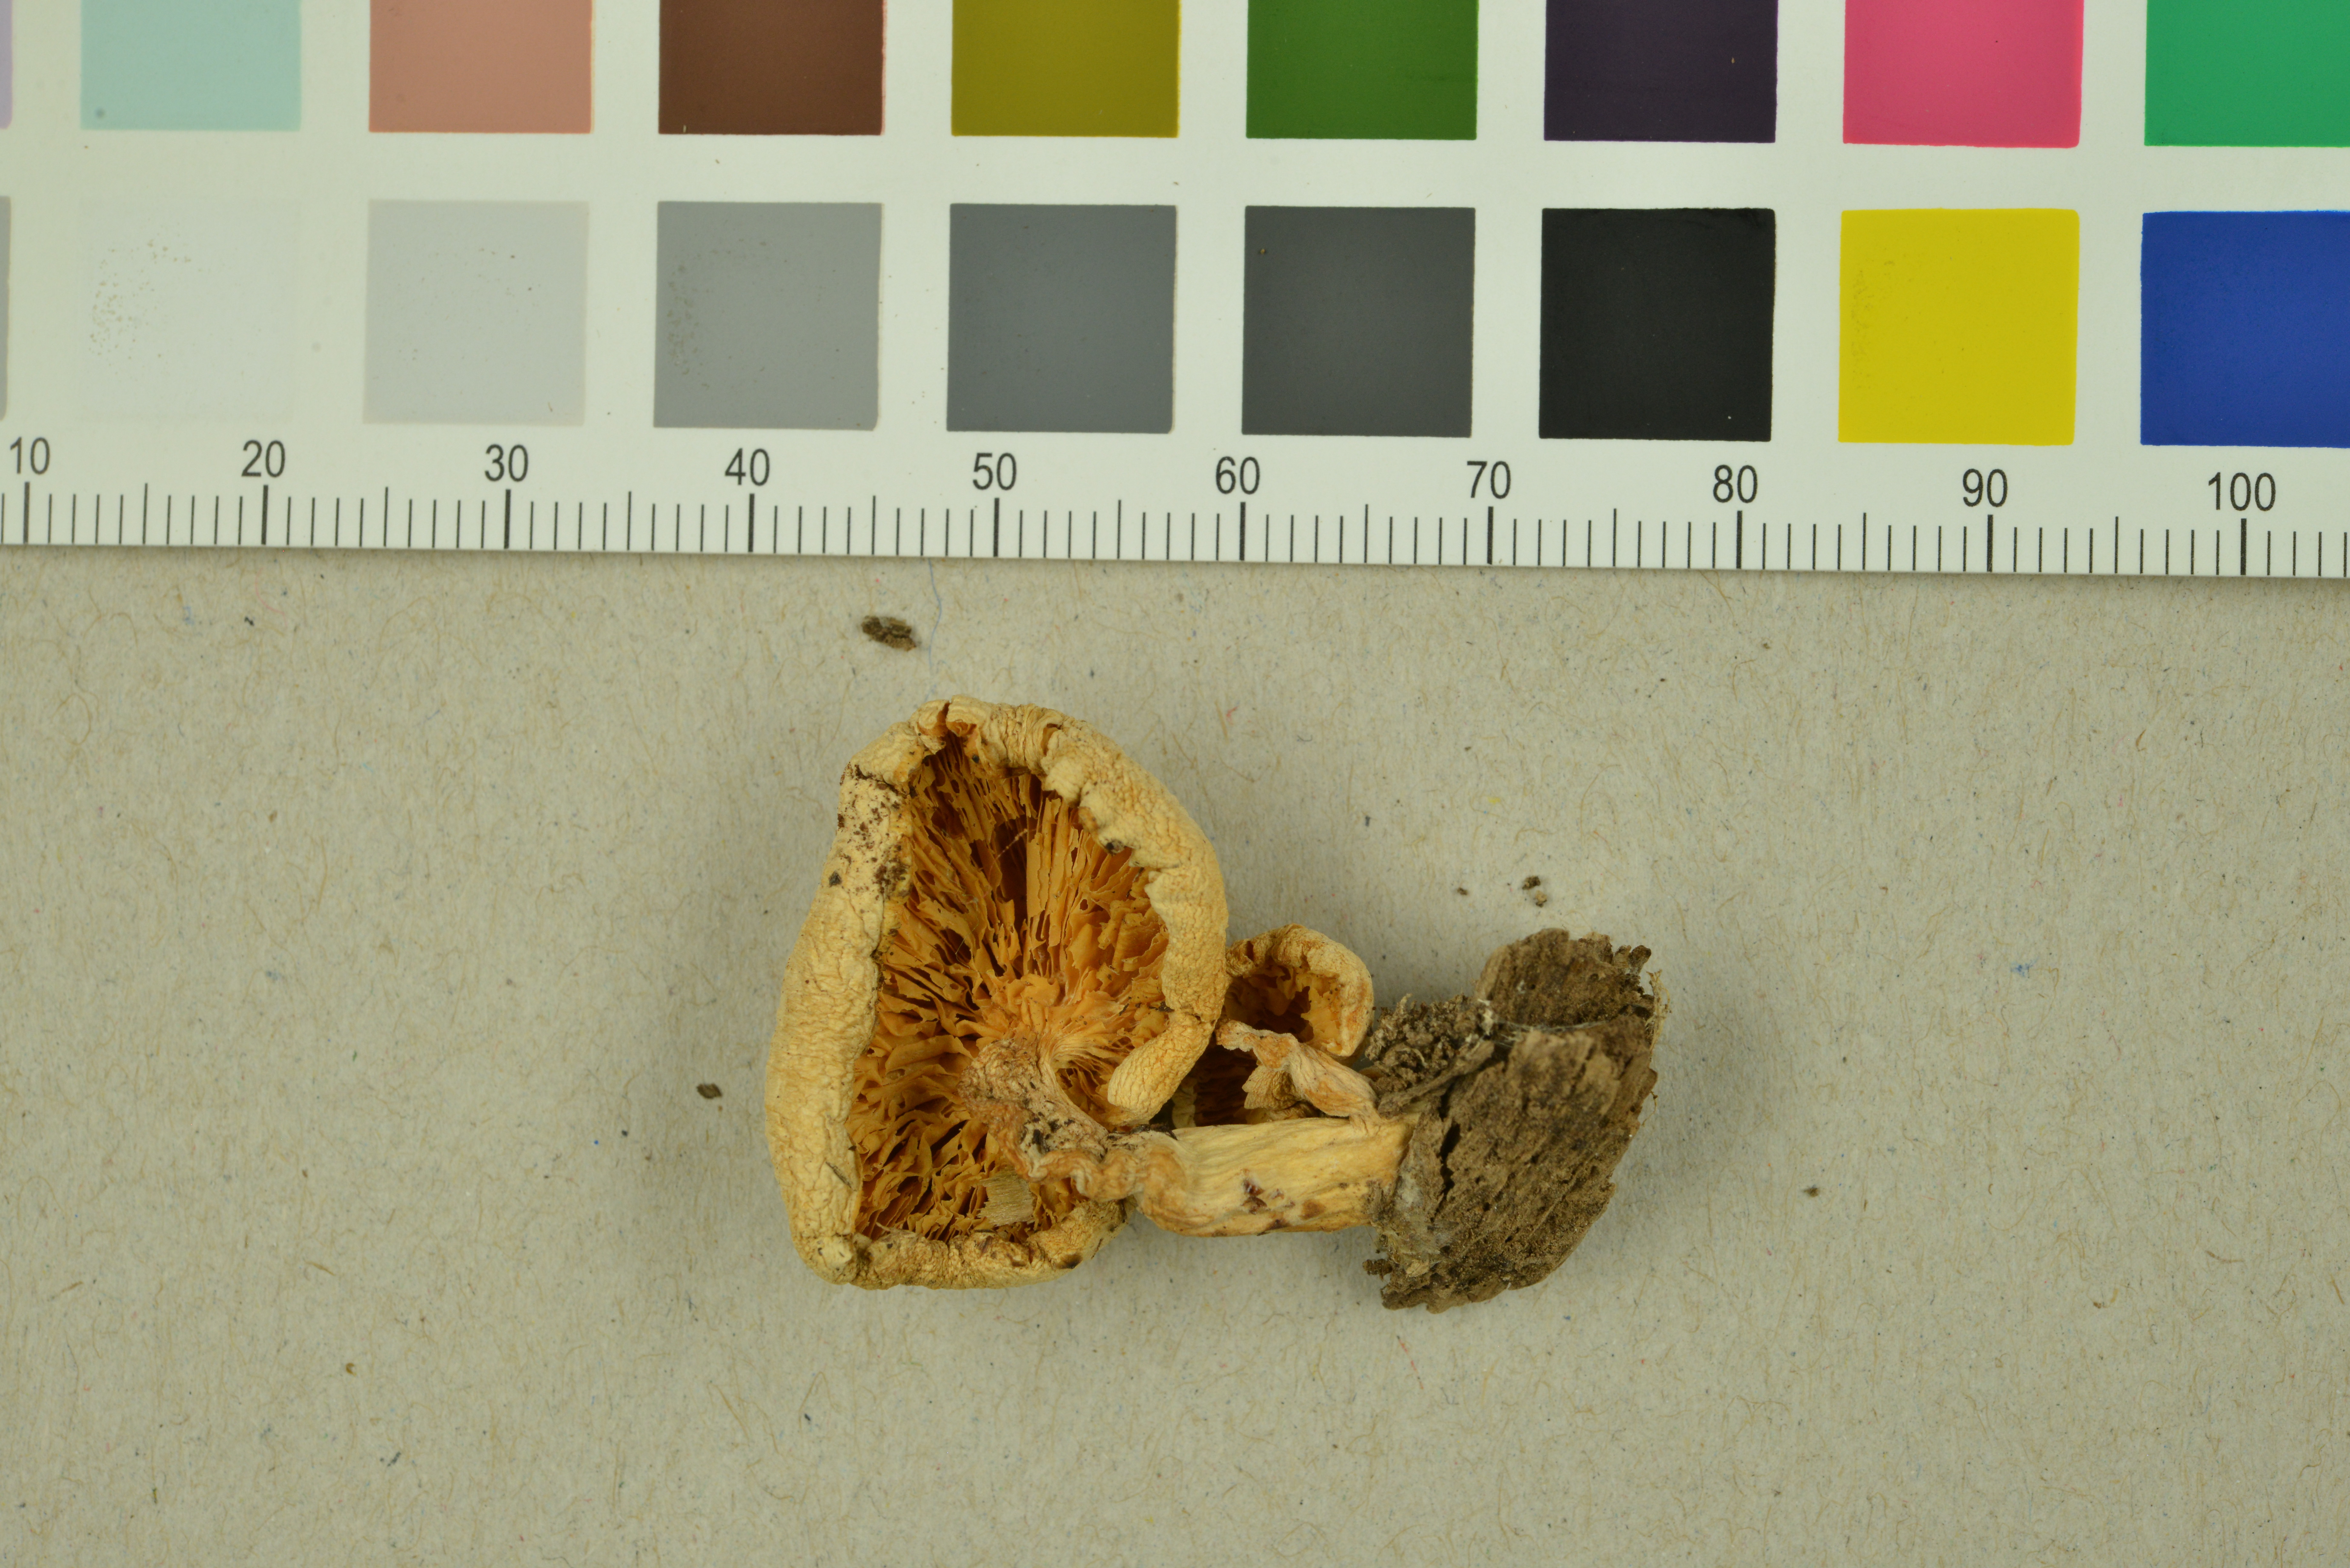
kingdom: Fungi
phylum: Basidiomycota
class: Agaricomycetes
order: Agaricales
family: Lyophyllaceae
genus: Ossicaulis
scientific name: Ossicaulis lachnopus
